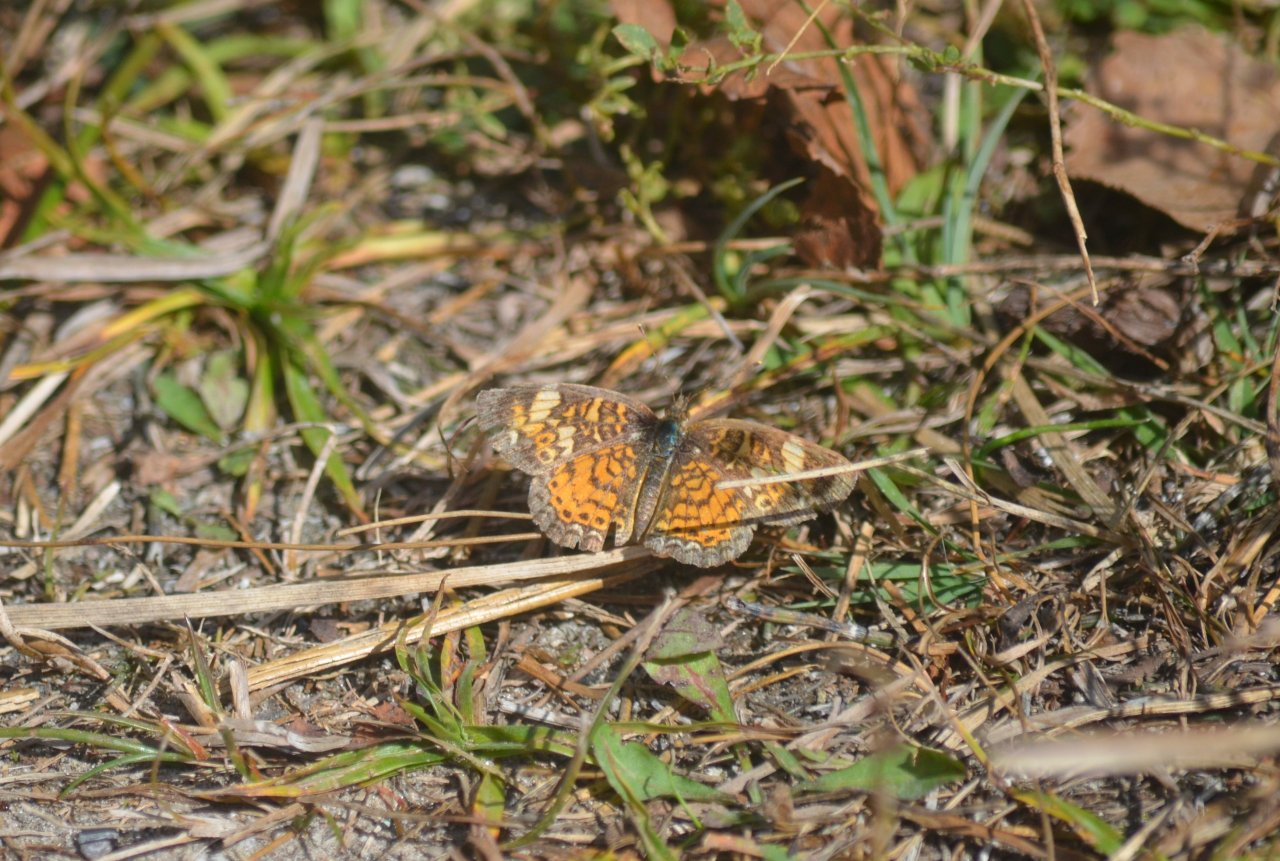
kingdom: Animalia
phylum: Arthropoda
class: Insecta
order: Lepidoptera
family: Nymphalidae
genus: Phyciodes
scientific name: Phyciodes tharos
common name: Pearl Crescent
